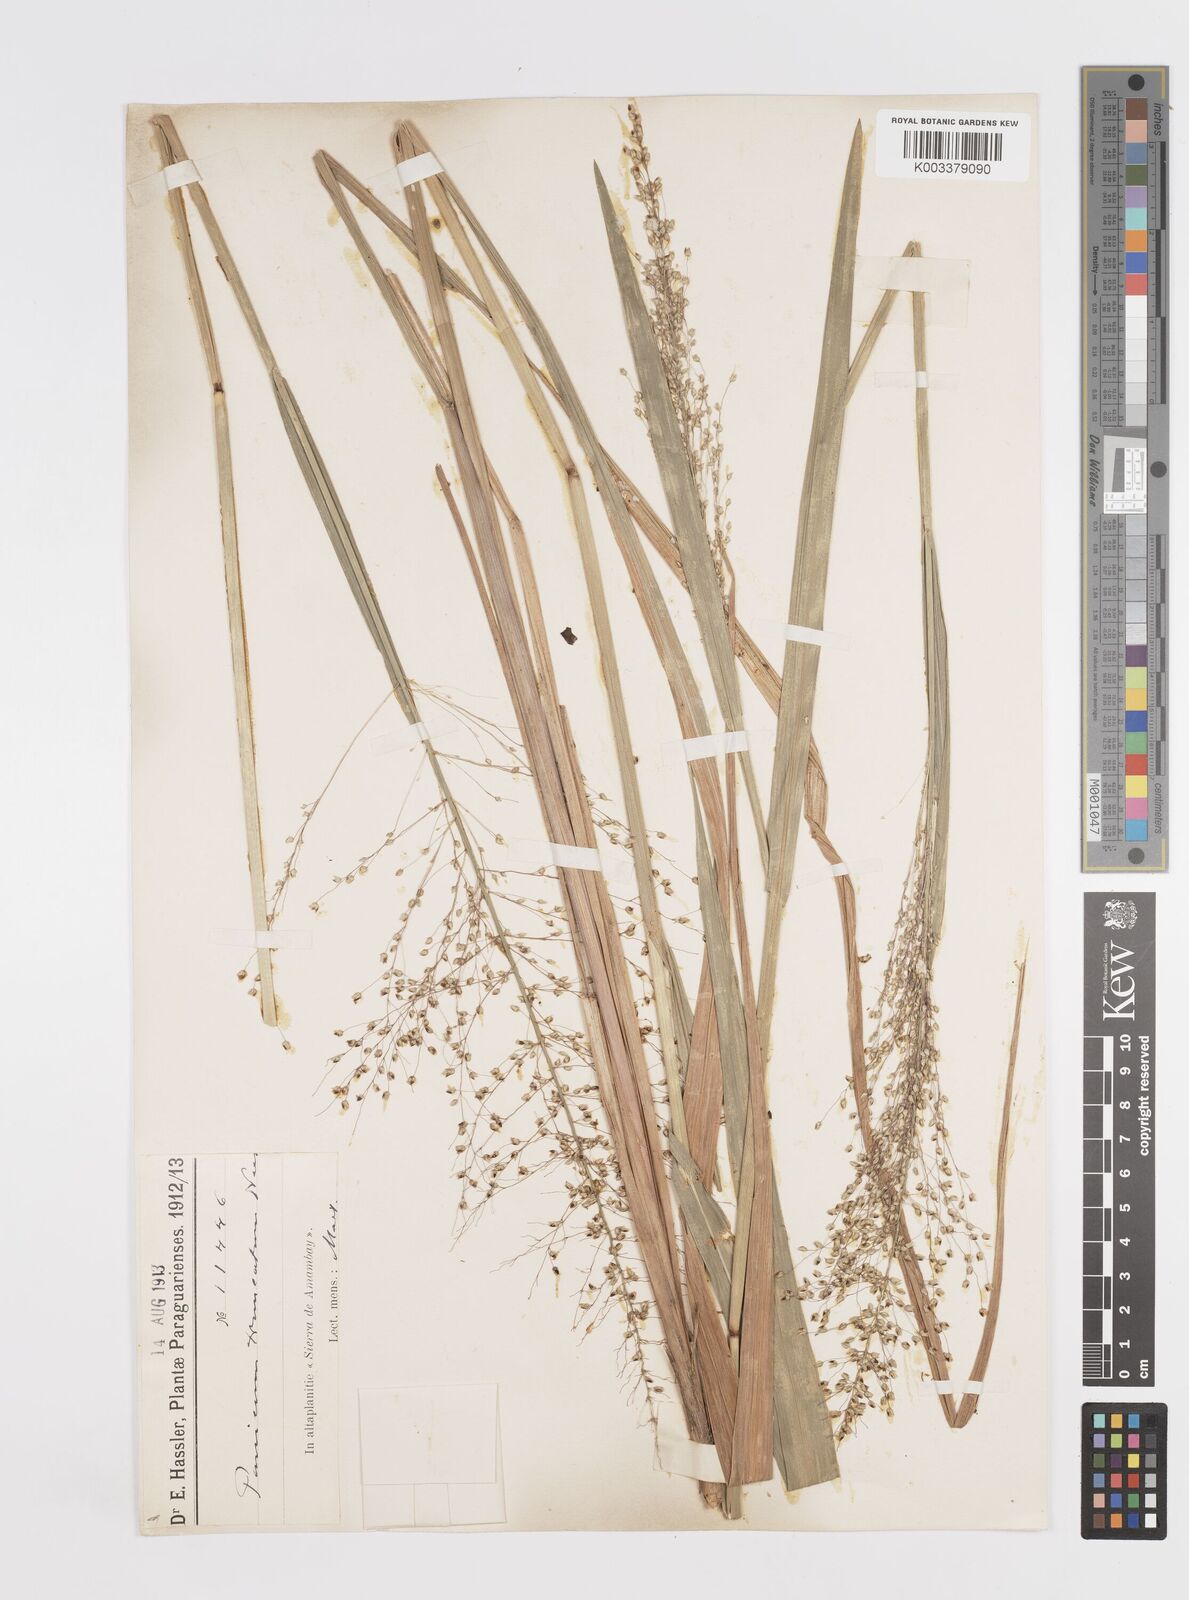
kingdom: Plantae
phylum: Tracheophyta
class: Liliopsida
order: Poales
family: Poaceae
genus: Otachyrium
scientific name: Otachyrium versicolor
